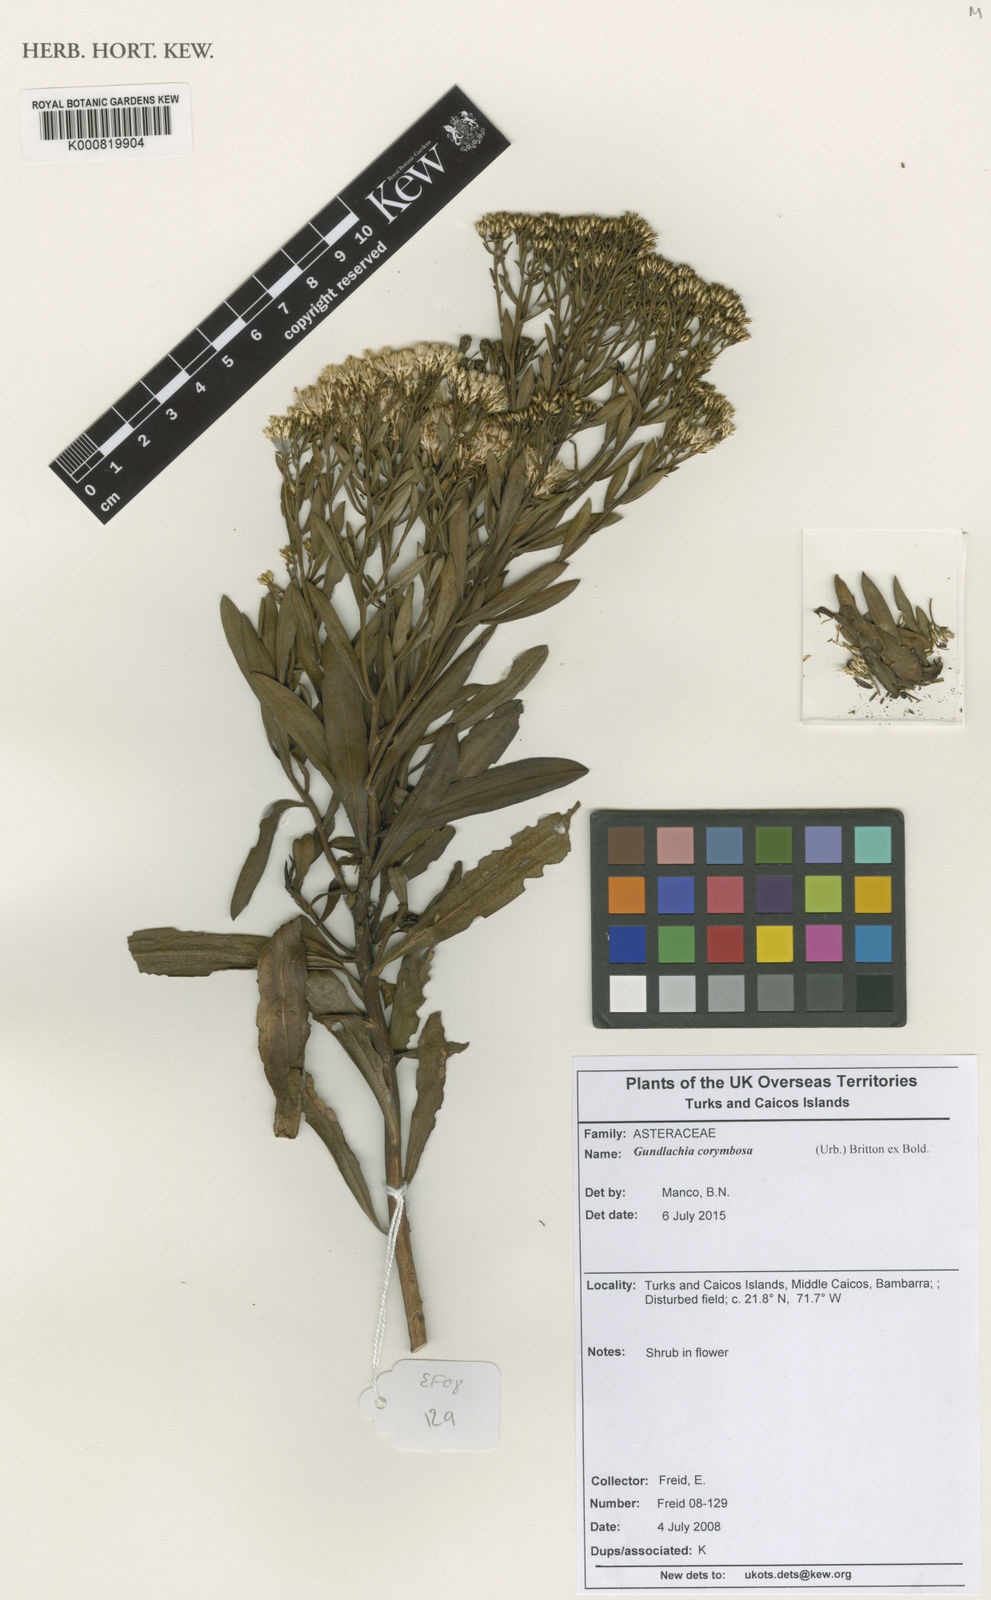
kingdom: Plantae
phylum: Tracheophyta
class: Magnoliopsida
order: Asterales
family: Asteraceae
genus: Gundlachia
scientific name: Gundlachia corymbosa
